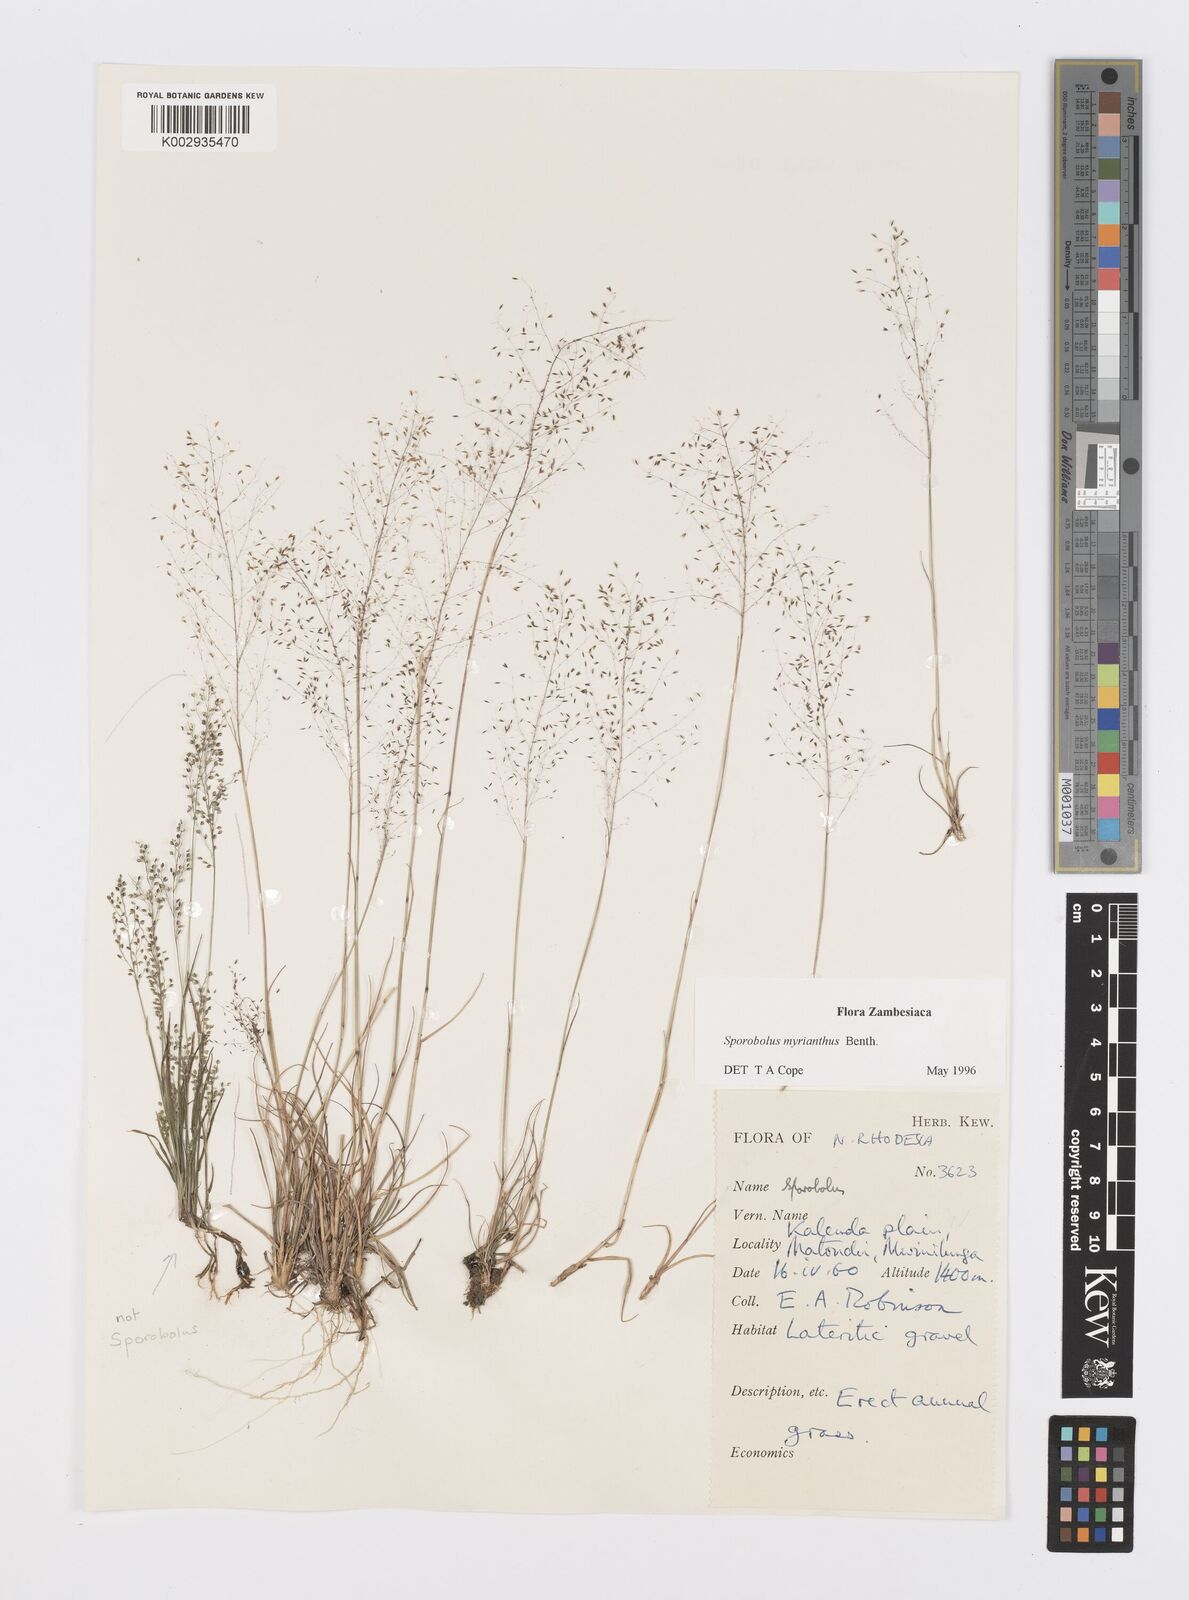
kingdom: Plantae
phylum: Tracheophyta
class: Liliopsida
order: Poales
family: Poaceae
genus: Sporobolus
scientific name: Sporobolus myrianthus
